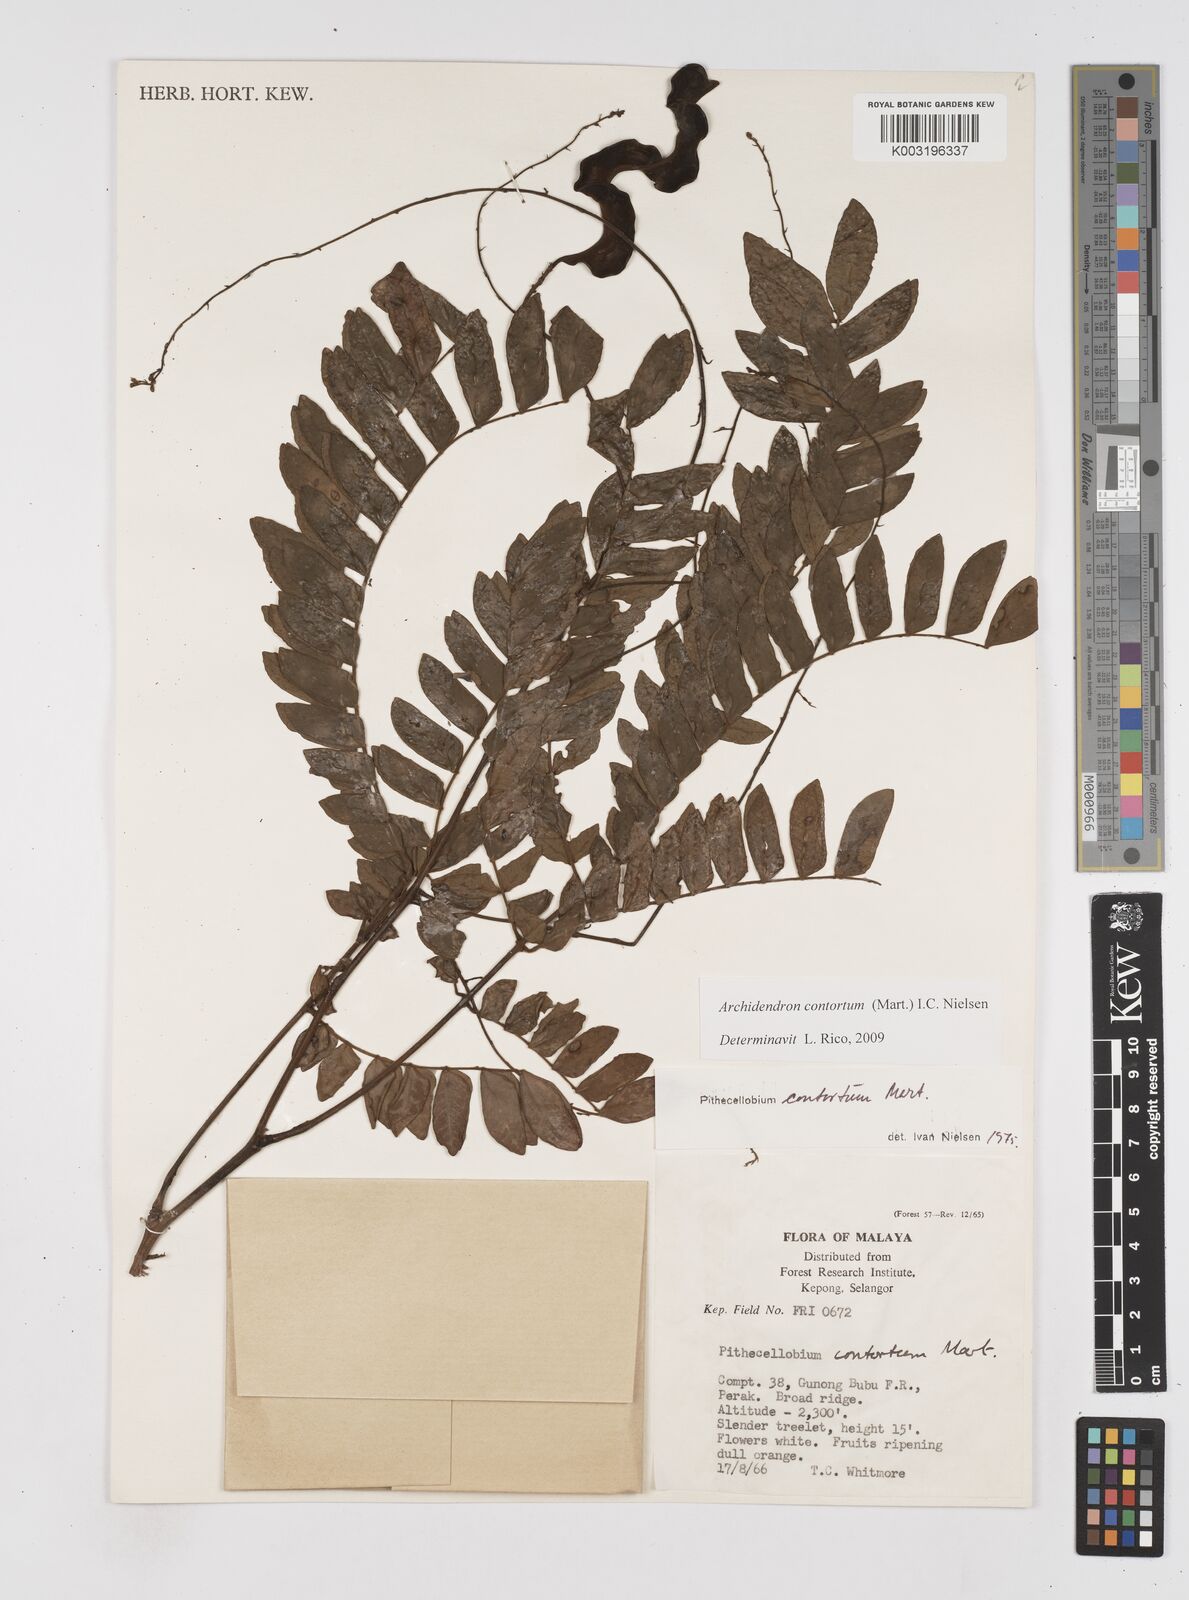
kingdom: Plantae
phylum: Tracheophyta
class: Magnoliopsida
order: Fabales
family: Fabaceae
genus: Archidendron
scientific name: Archidendron contortum
